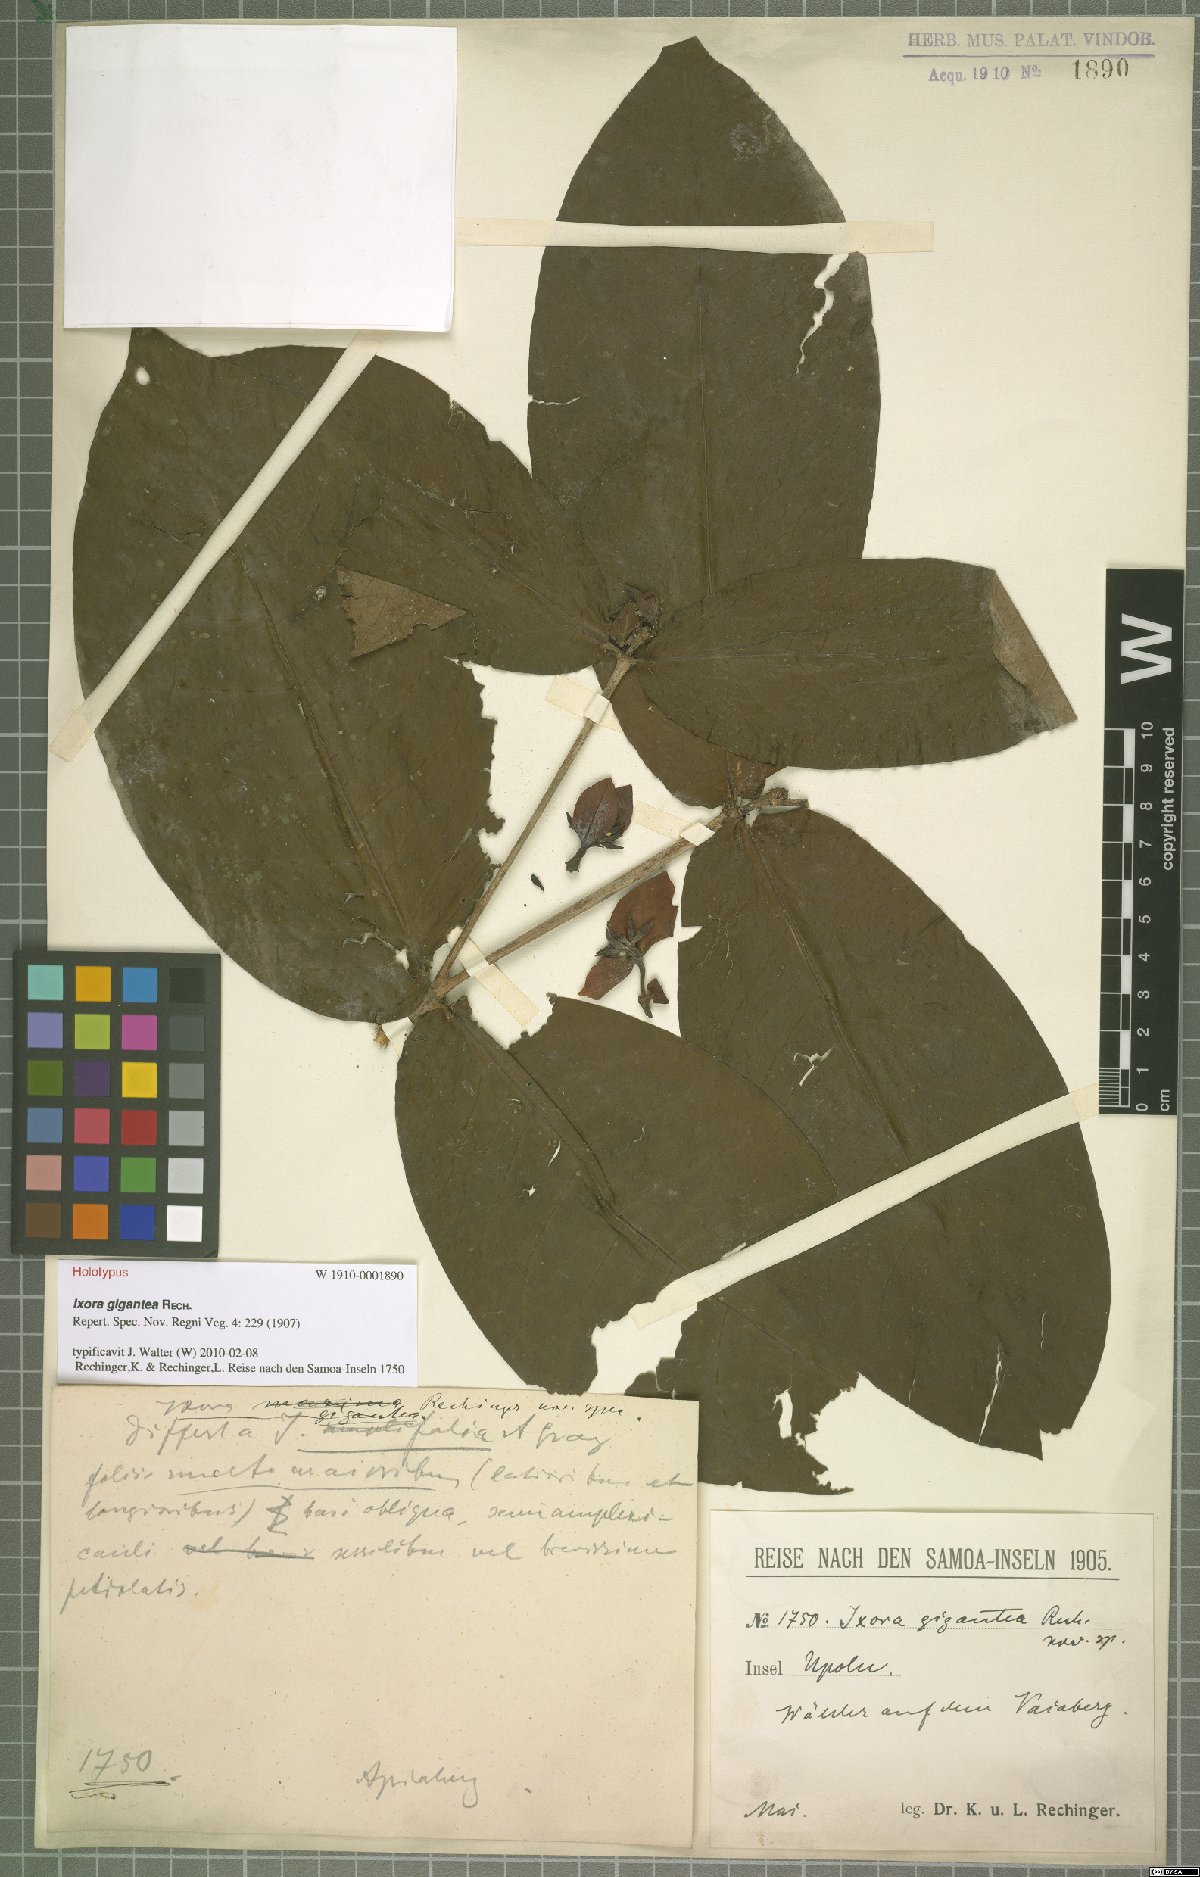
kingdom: Plantae
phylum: Tracheophyta
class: Magnoliopsida
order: Gentianales
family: Rubiaceae
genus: Ixora
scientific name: Ixora gigantea
